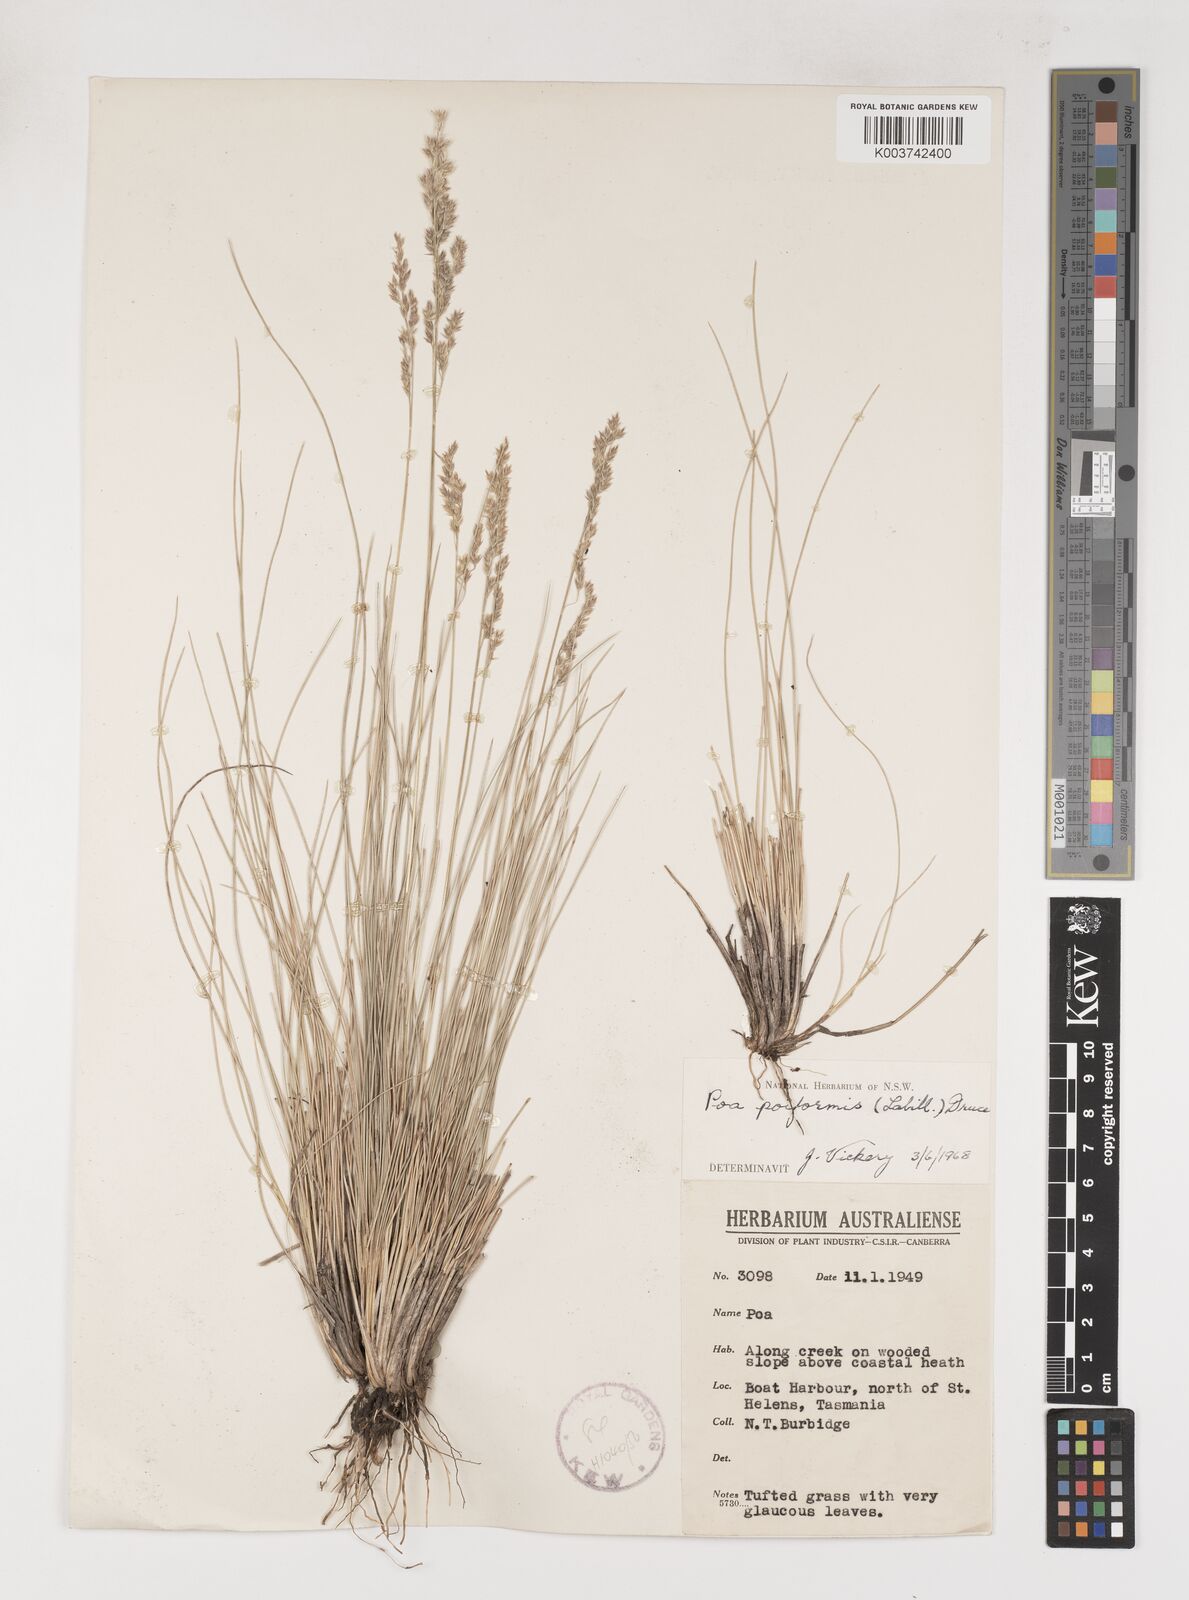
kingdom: Plantae
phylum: Tracheophyta
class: Liliopsida
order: Poales
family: Poaceae
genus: Poa
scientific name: Poa poiformis
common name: Tussock poa
